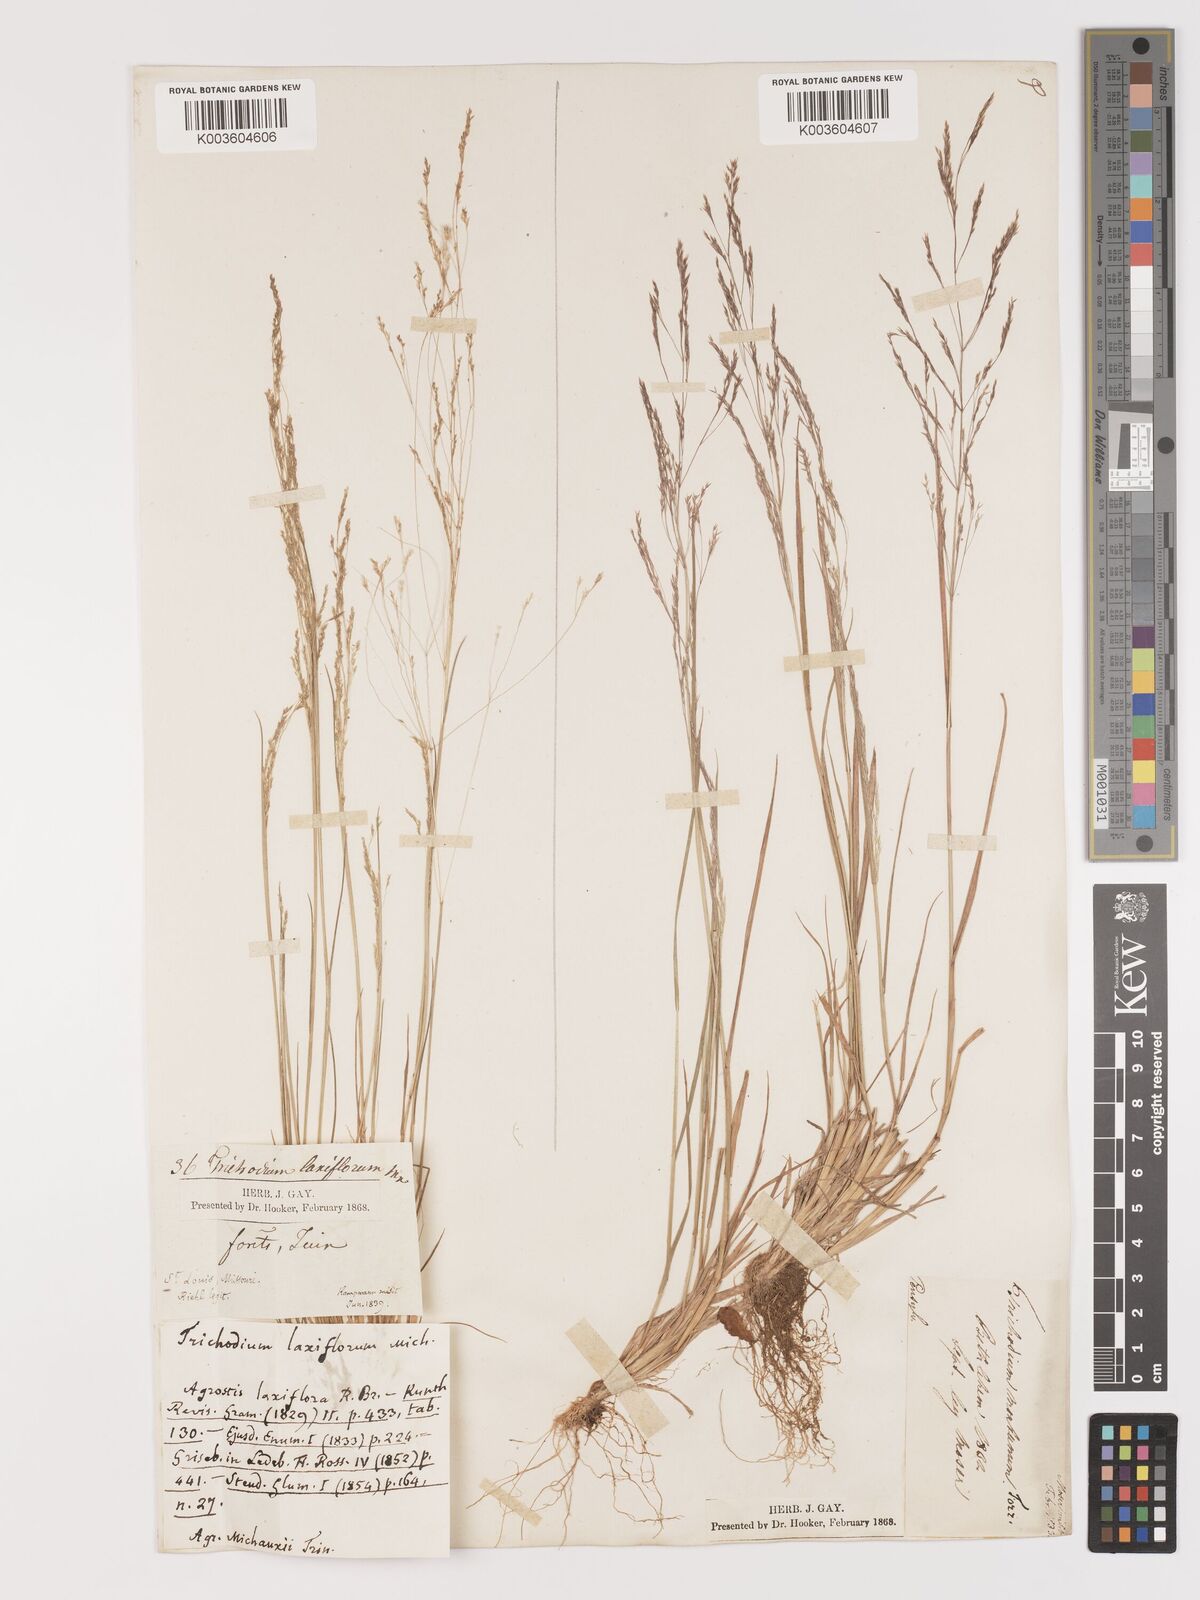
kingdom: Plantae
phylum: Tracheophyta
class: Liliopsida
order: Poales
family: Poaceae
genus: Agrostis
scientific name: Agrostis hyemalis
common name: Small bent
